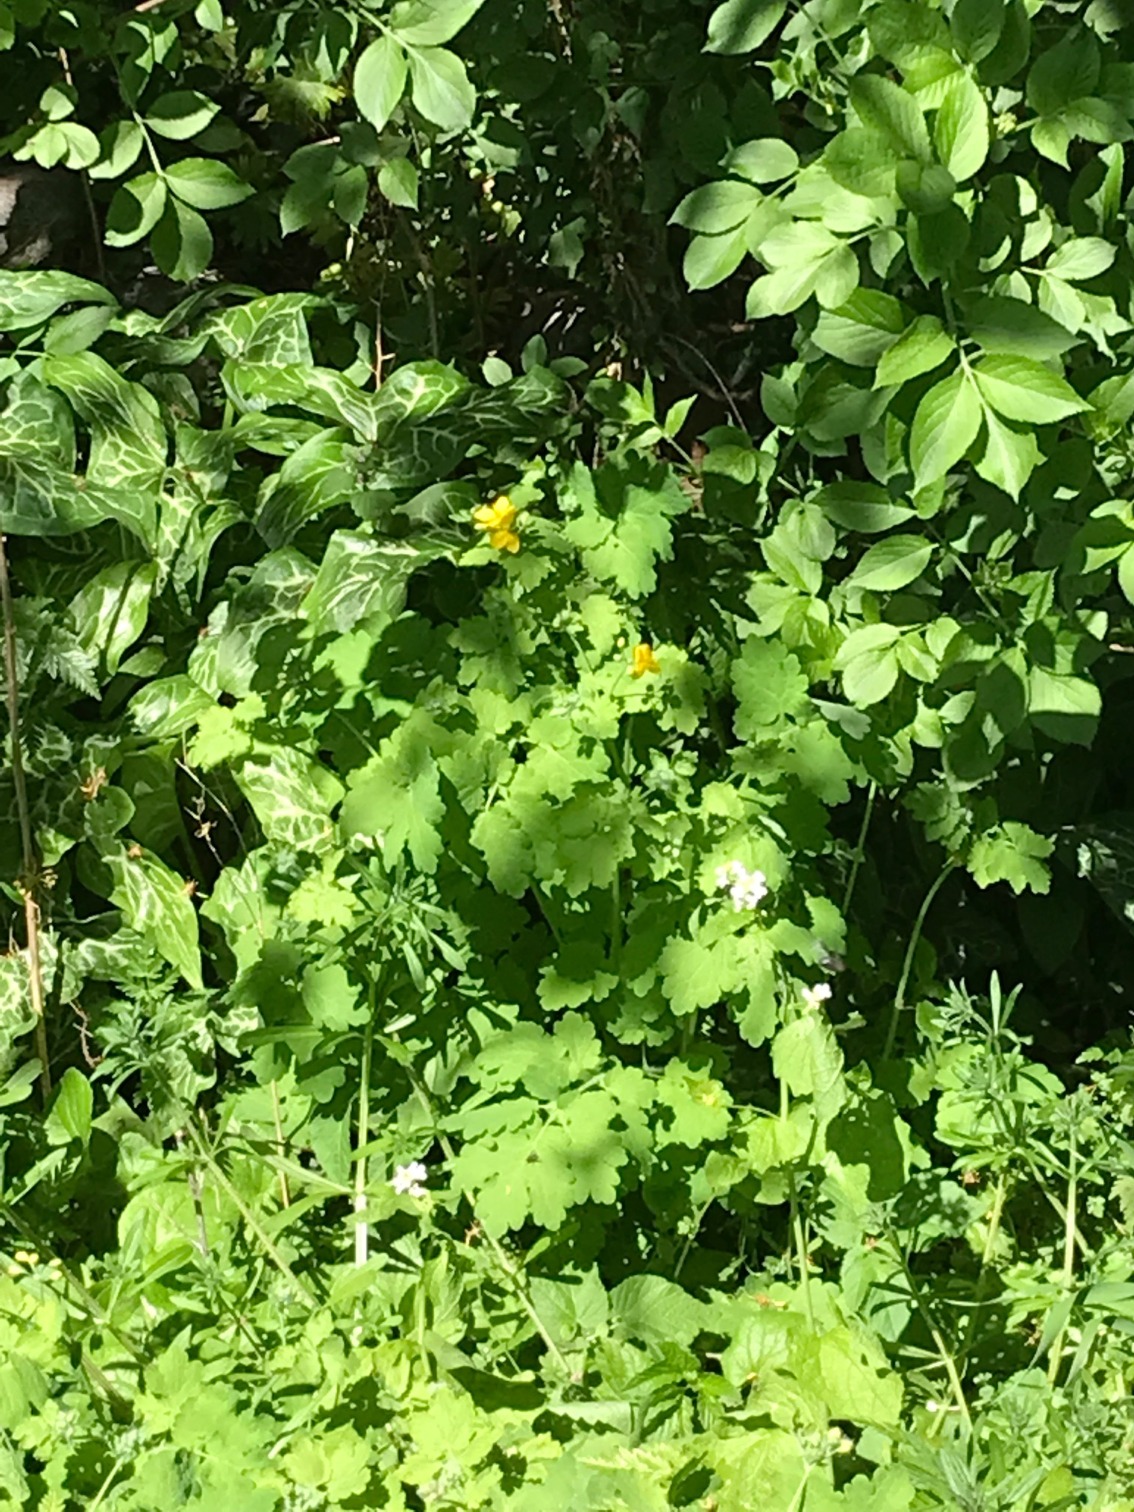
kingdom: Plantae
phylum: Tracheophyta
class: Magnoliopsida
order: Ranunculales
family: Papaveraceae
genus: Chelidonium
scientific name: Chelidonium majus
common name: Svaleurt
